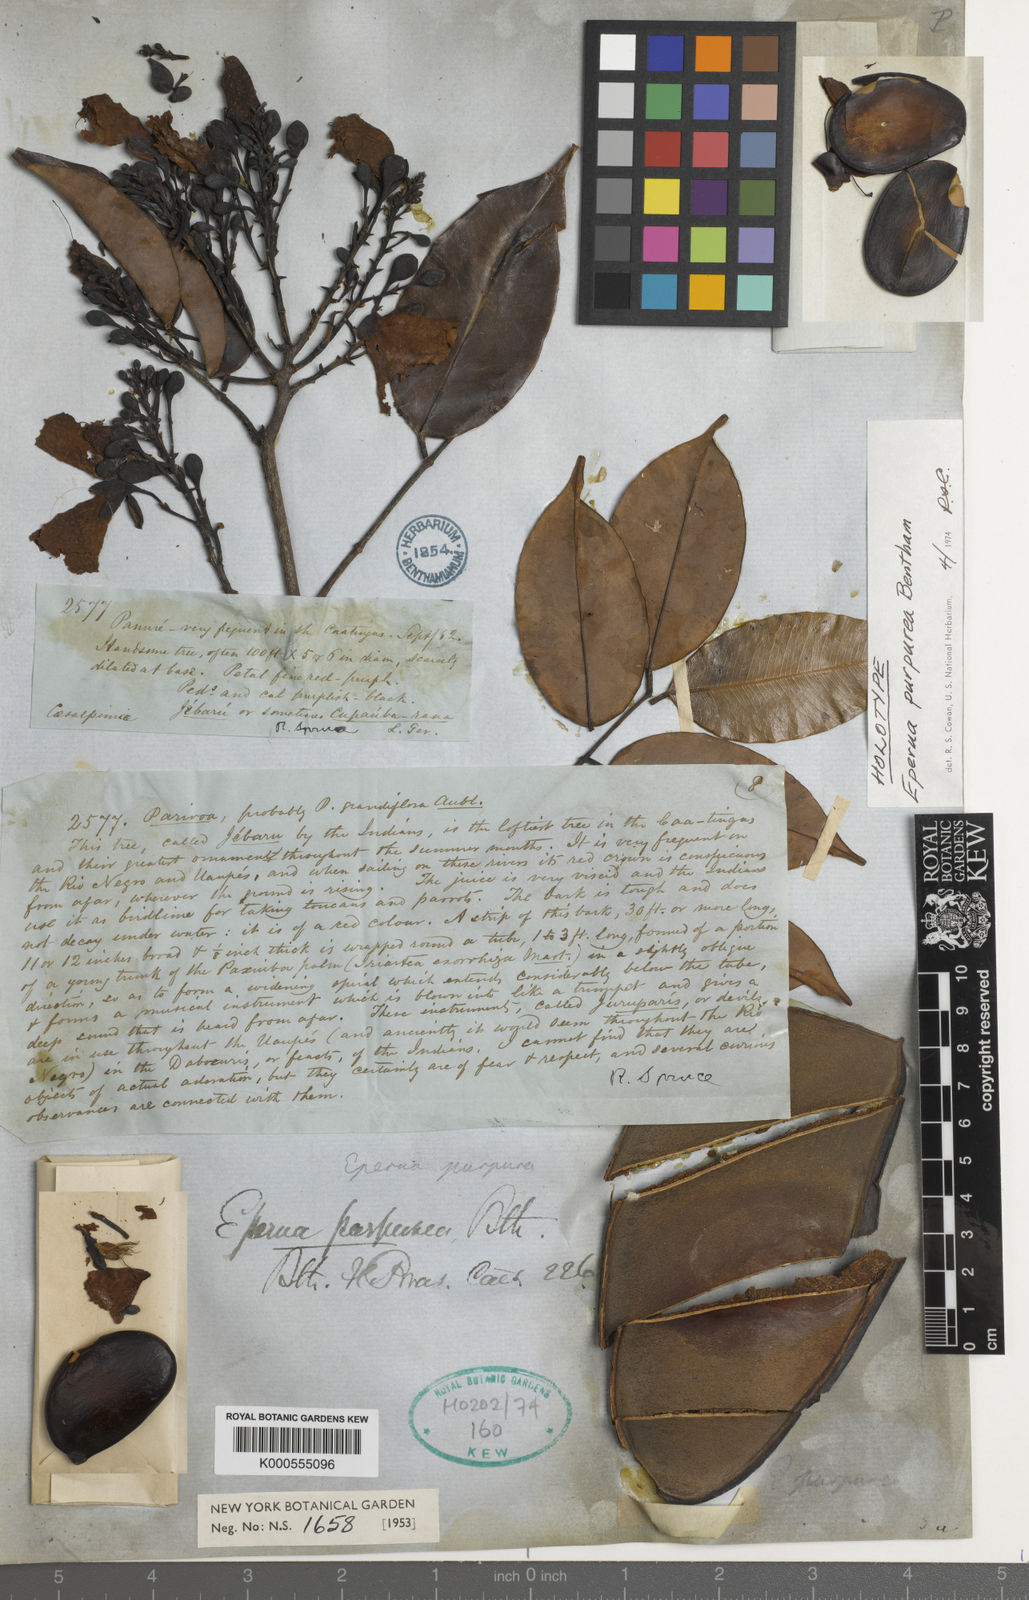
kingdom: Plantae
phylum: Tracheophyta
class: Magnoliopsida
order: Fabales
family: Fabaceae
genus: Eperua
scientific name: Eperua purpurea
